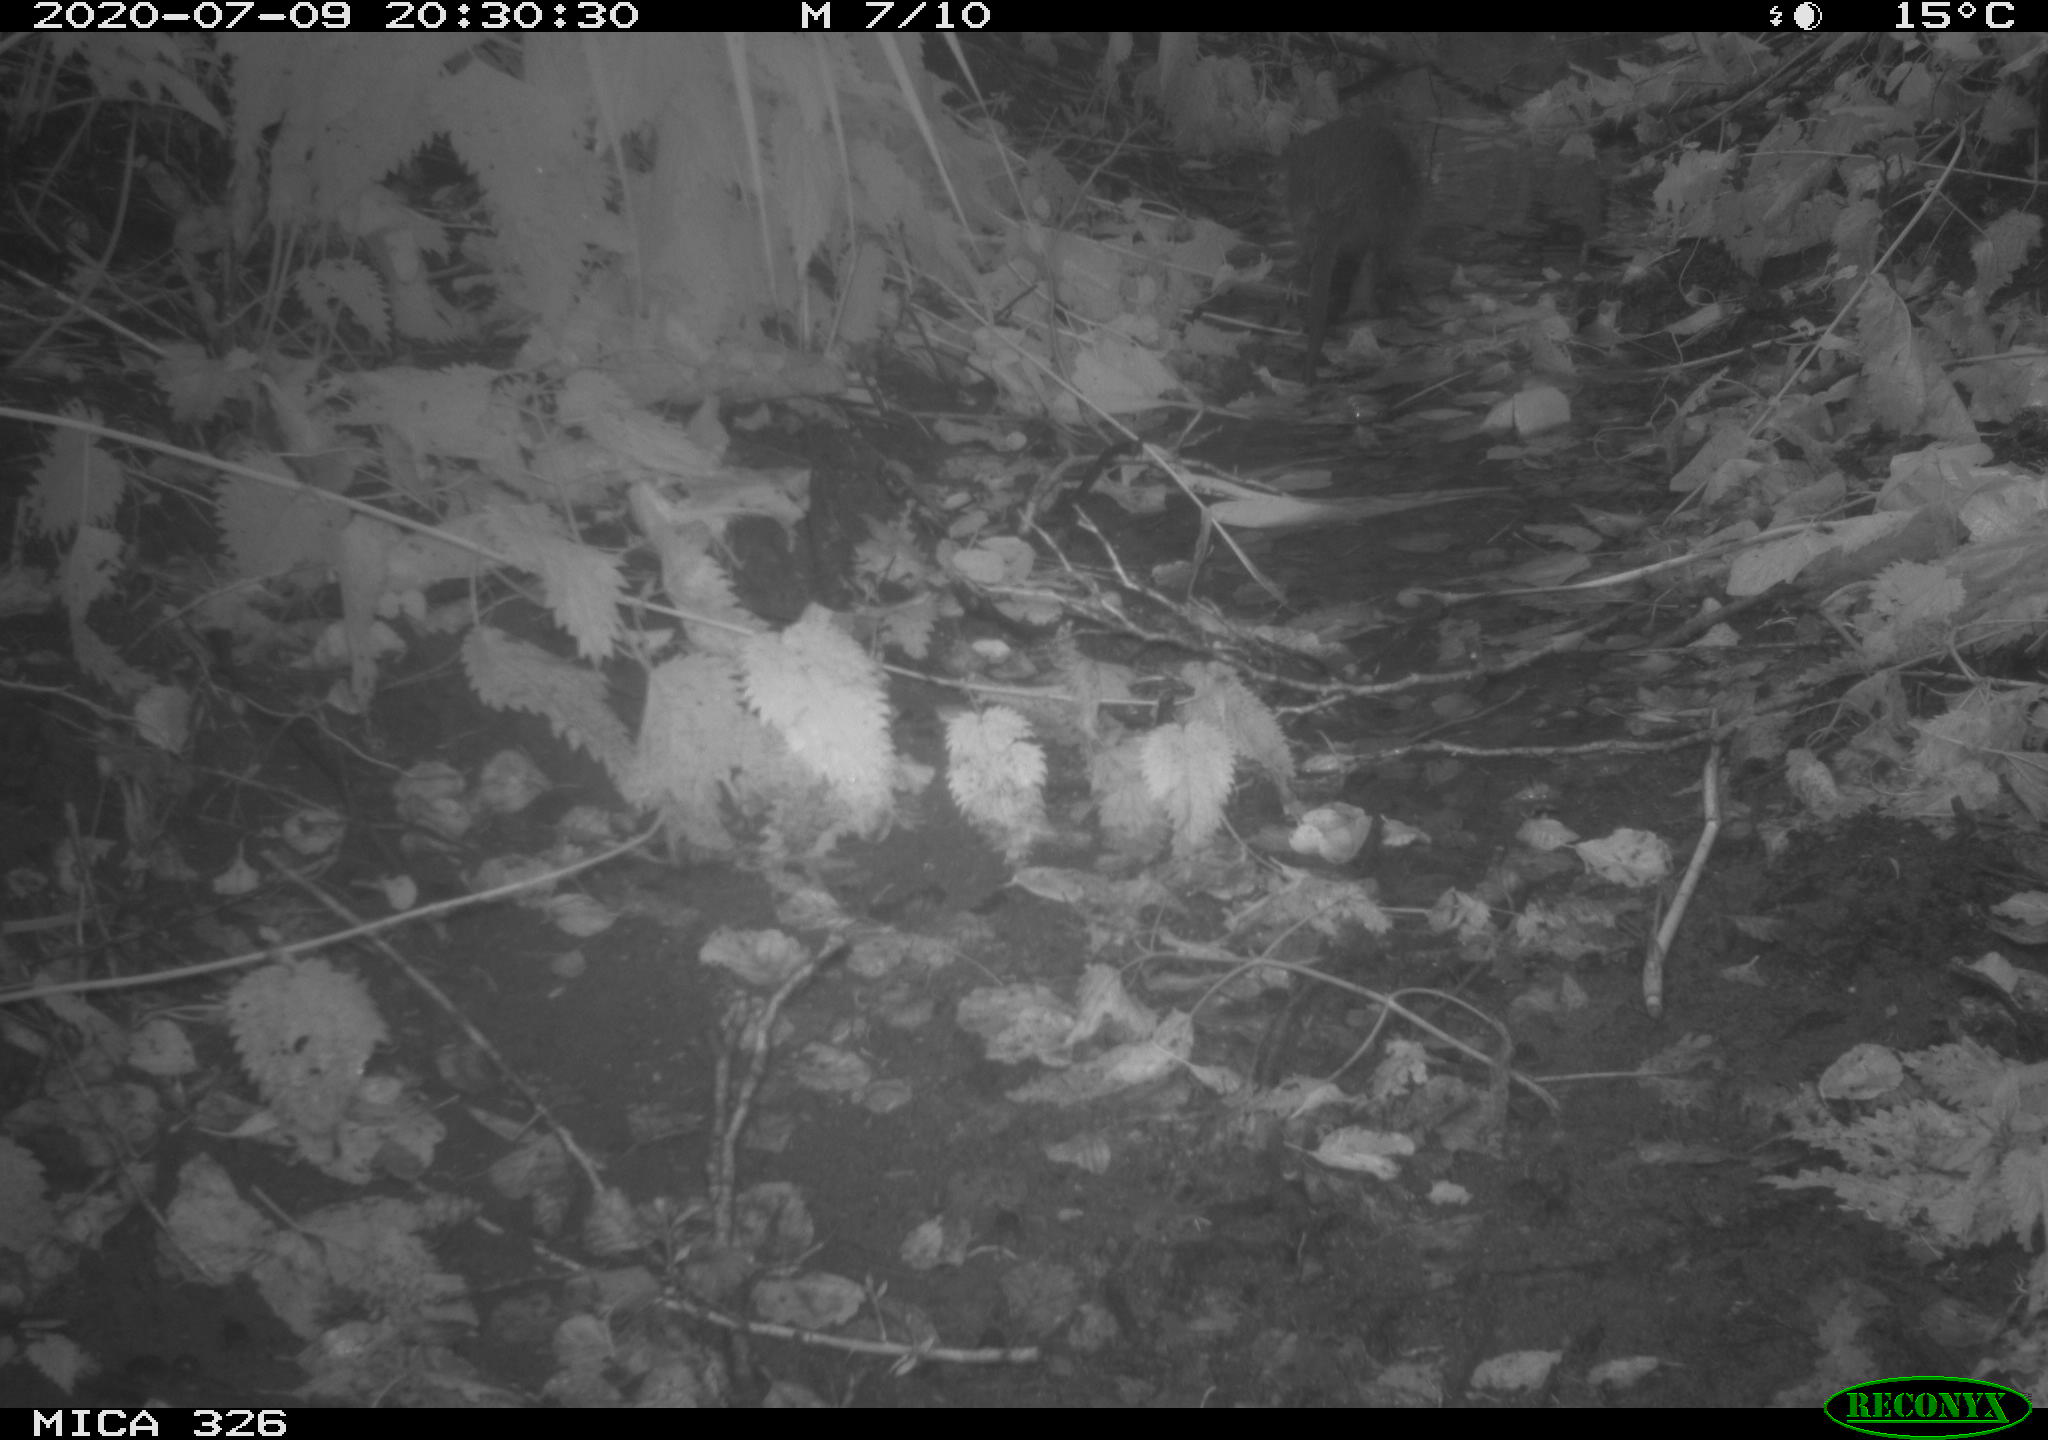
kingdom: Animalia
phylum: Chordata
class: Mammalia
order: Rodentia
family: Myocastoridae
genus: Myocastor
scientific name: Myocastor coypus
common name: Coypu
